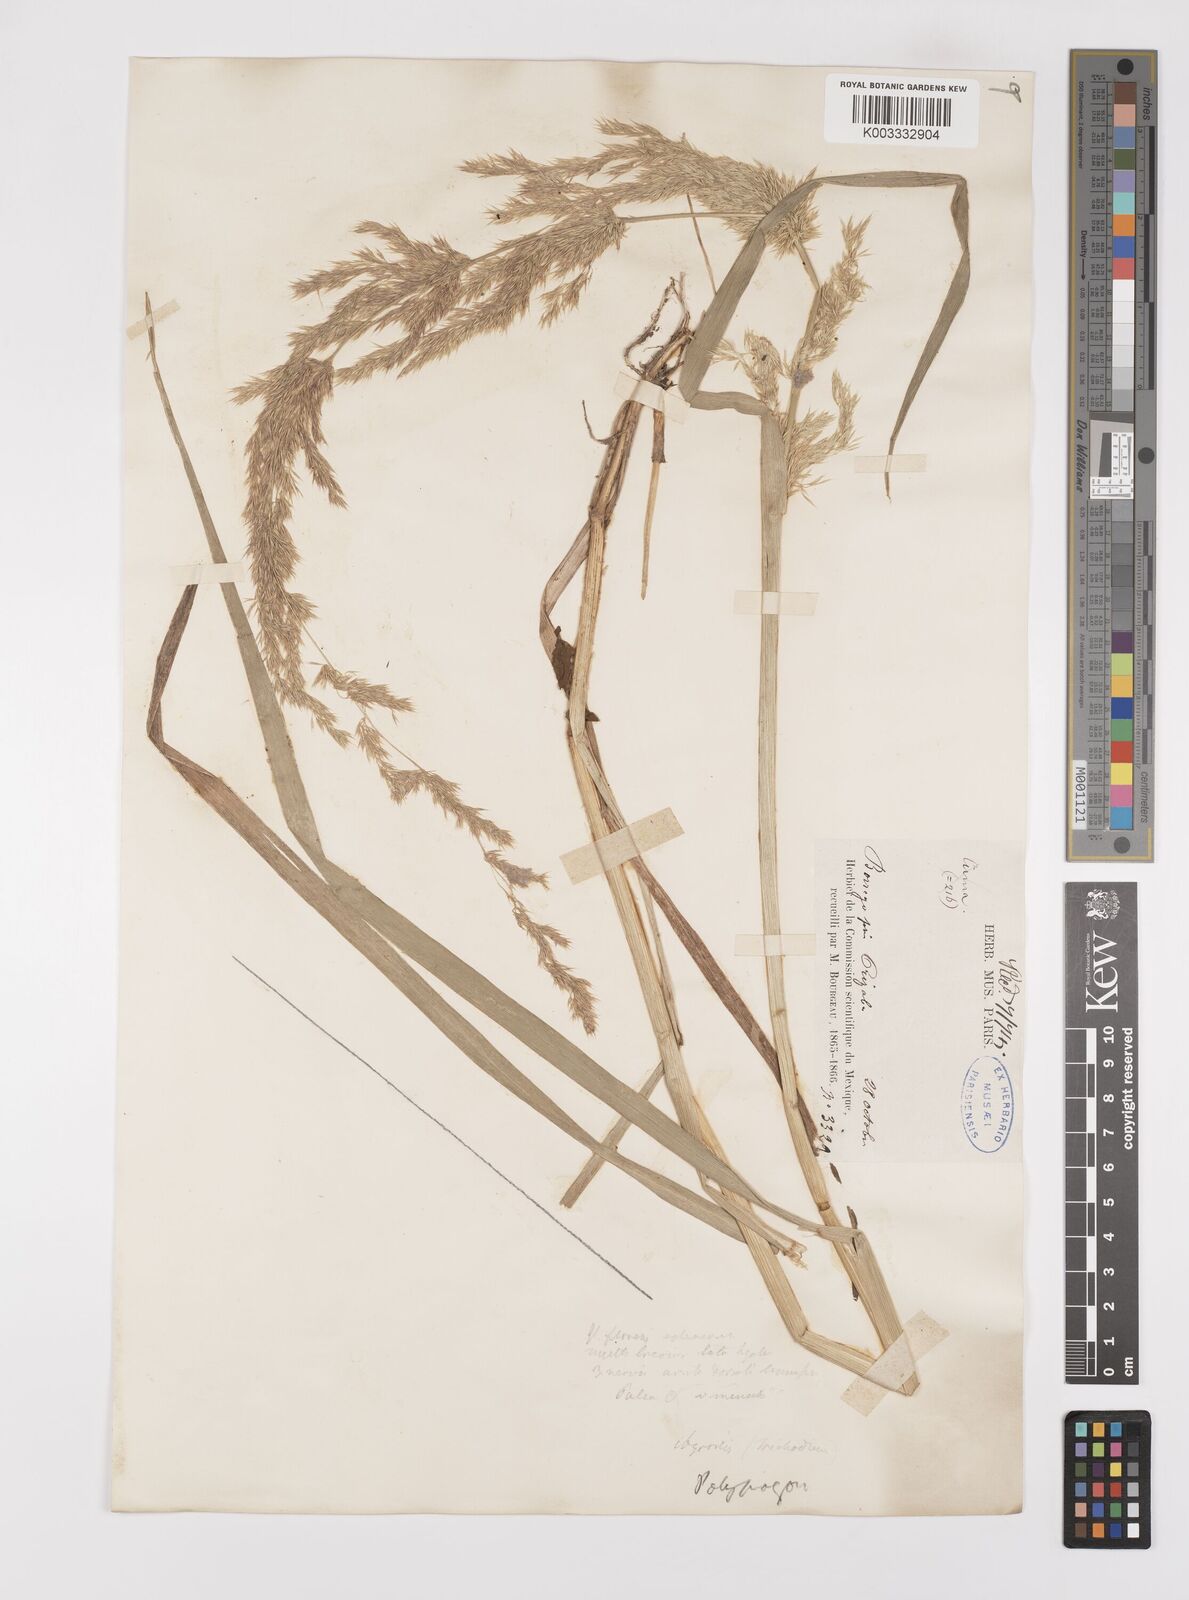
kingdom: Plantae
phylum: Tracheophyta
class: Liliopsida
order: Poales
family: Poaceae
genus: Polypogon
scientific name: Polypogon elongatus
